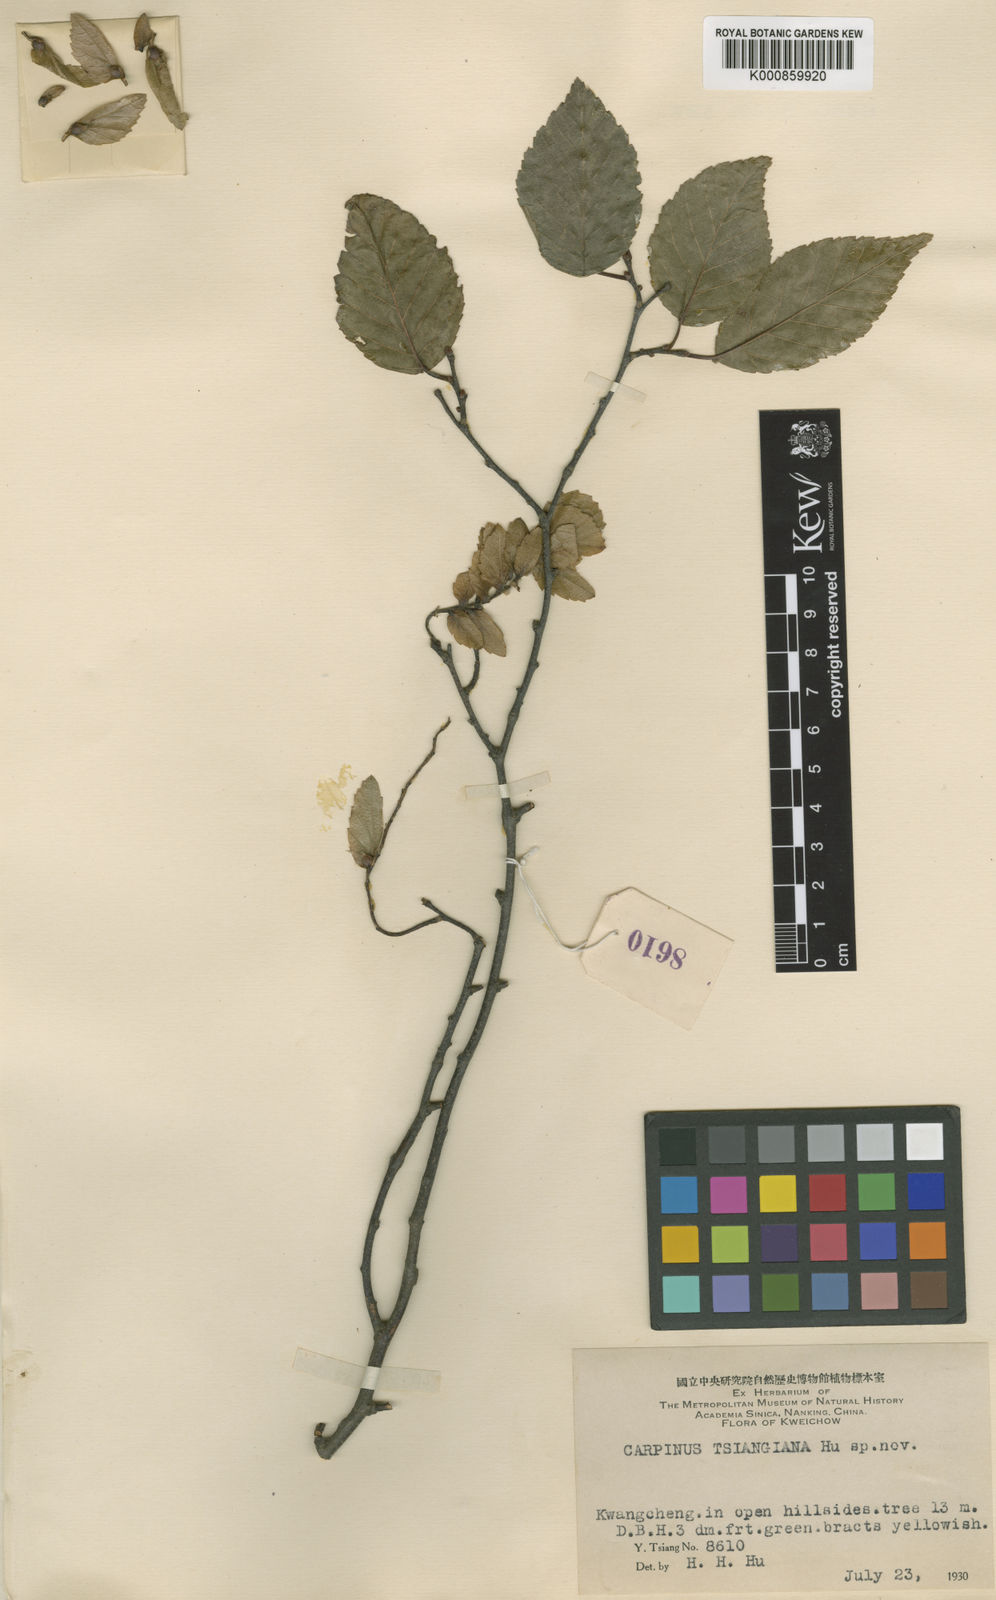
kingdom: Plantae
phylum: Tracheophyta
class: Magnoliopsida
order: Fagales
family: Betulaceae
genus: Carpinus
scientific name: Carpinus pubescens
